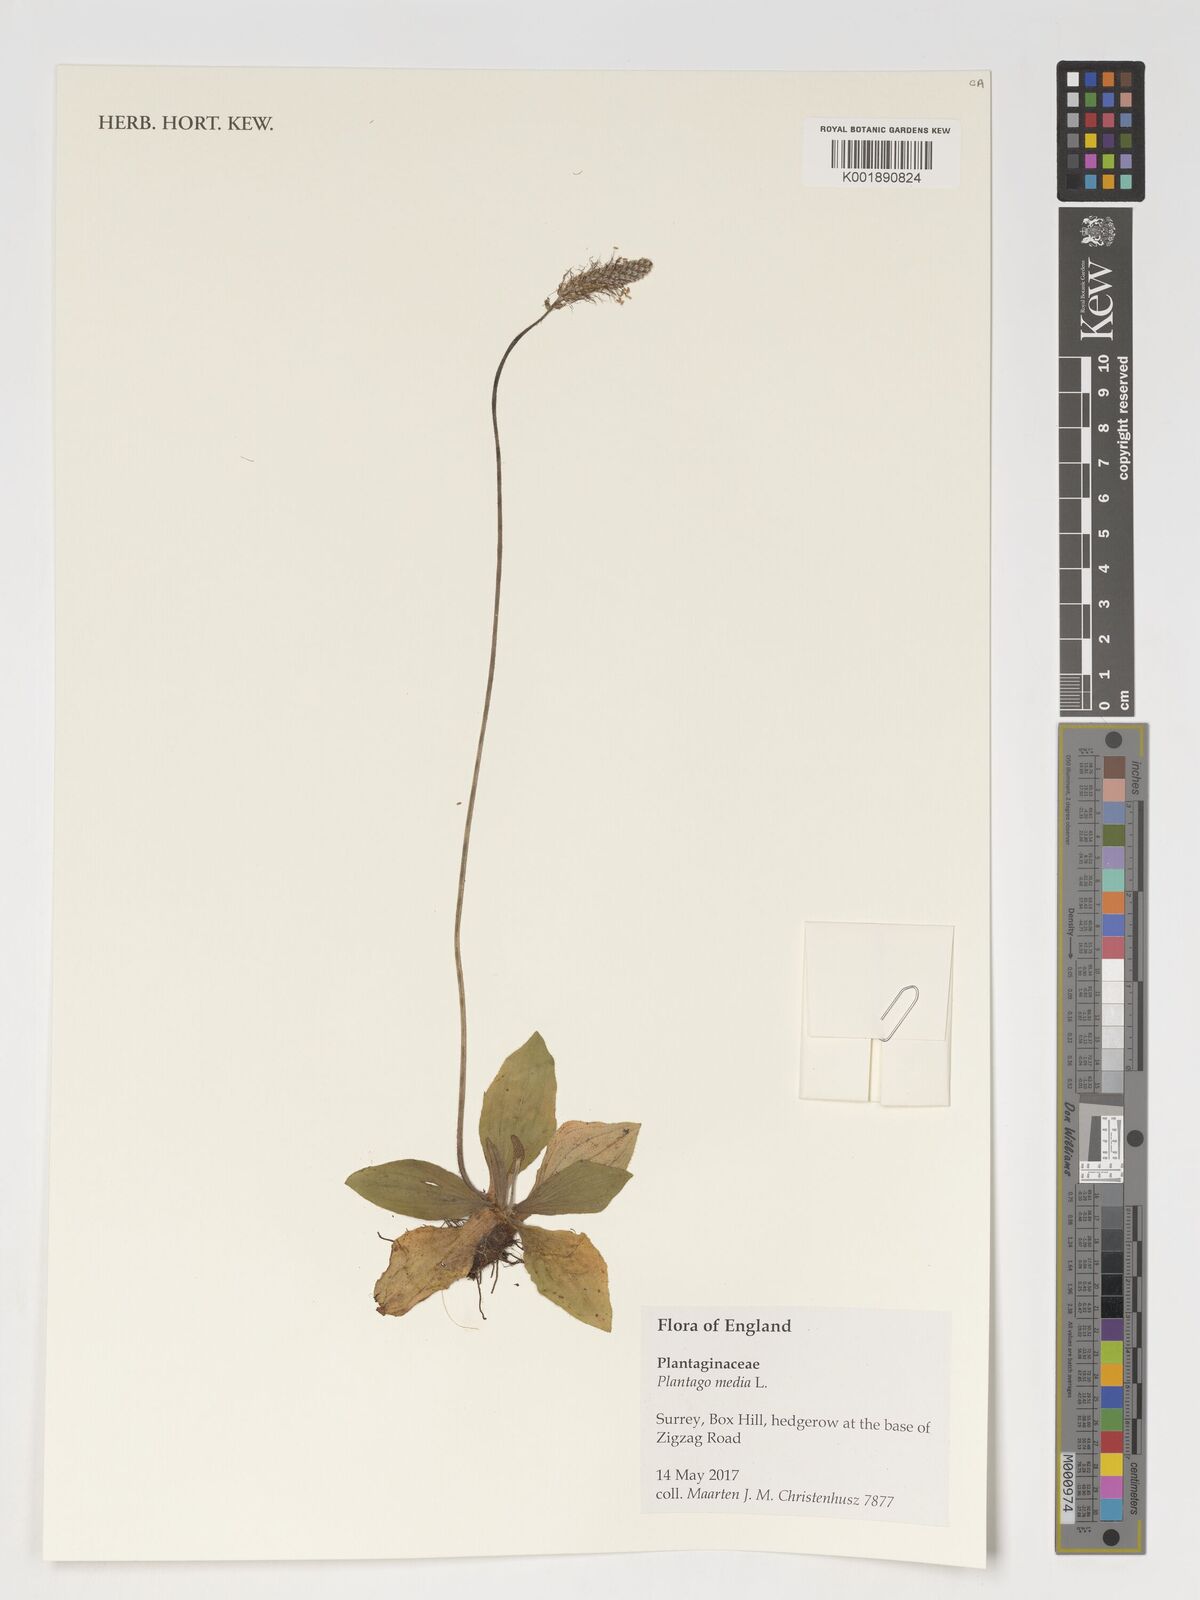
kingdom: Plantae
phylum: Tracheophyta
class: Magnoliopsida
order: Lamiales
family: Plantaginaceae
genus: Plantago
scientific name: Plantago media
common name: Hoary plantain
